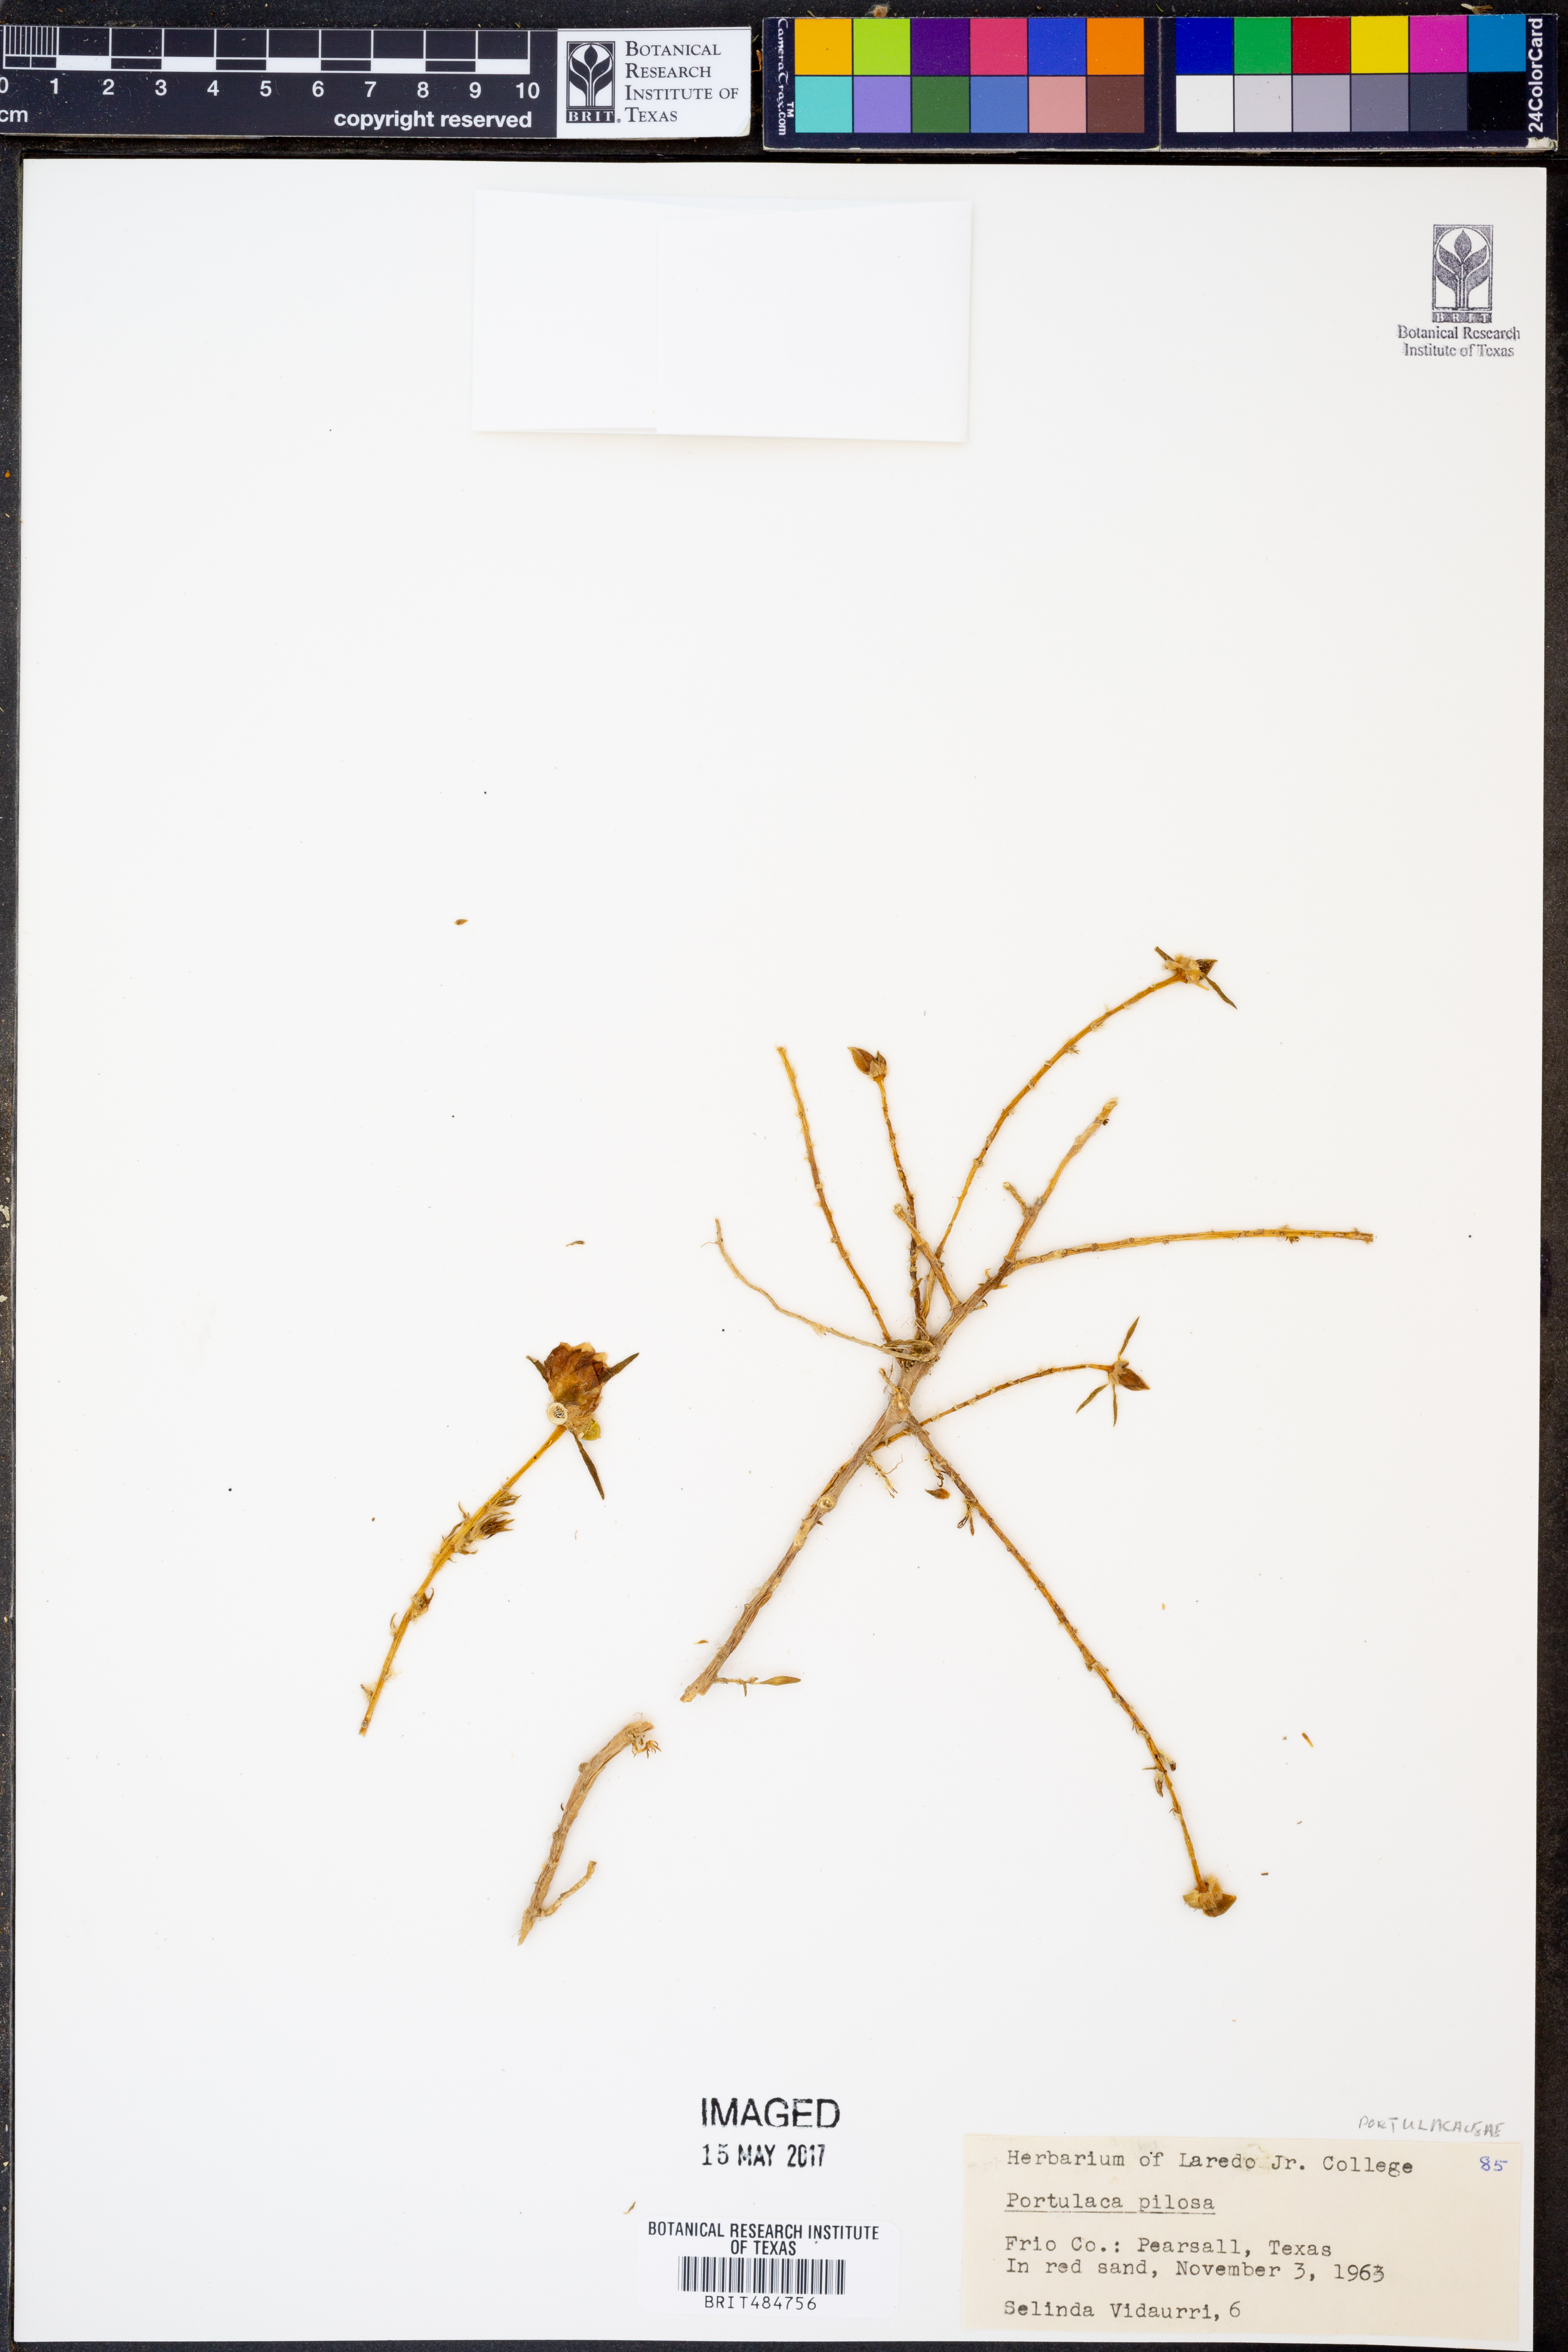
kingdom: Plantae
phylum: Tracheophyta
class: Magnoliopsida
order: Caryophyllales
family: Portulacaceae
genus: Portulaca
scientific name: Portulaca pilosa
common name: Kiss me quick
